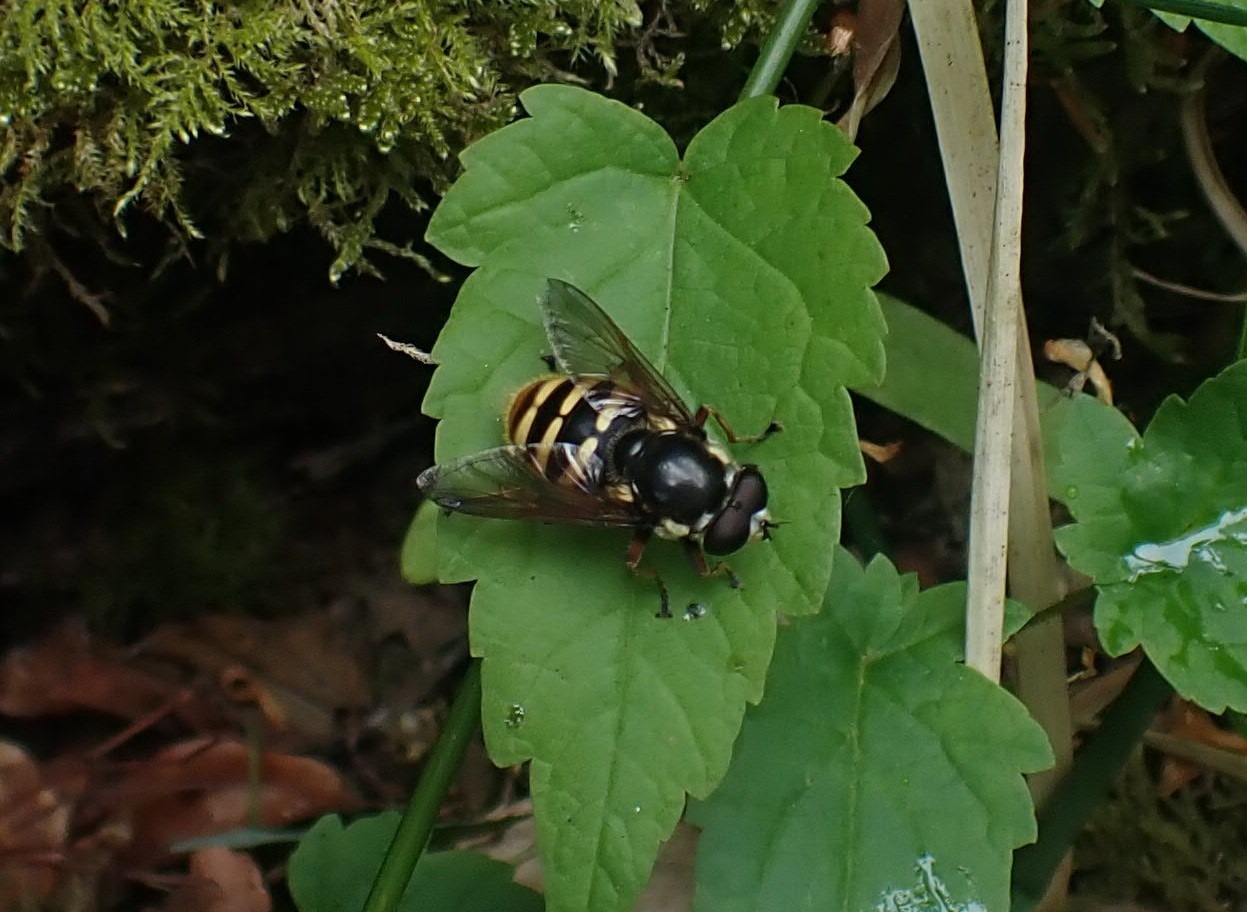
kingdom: Animalia
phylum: Arthropoda
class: Insecta
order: Diptera
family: Syrphidae
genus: Sericomyia
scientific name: Sericomyia silentis
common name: Tørve-silkesvirreflue
